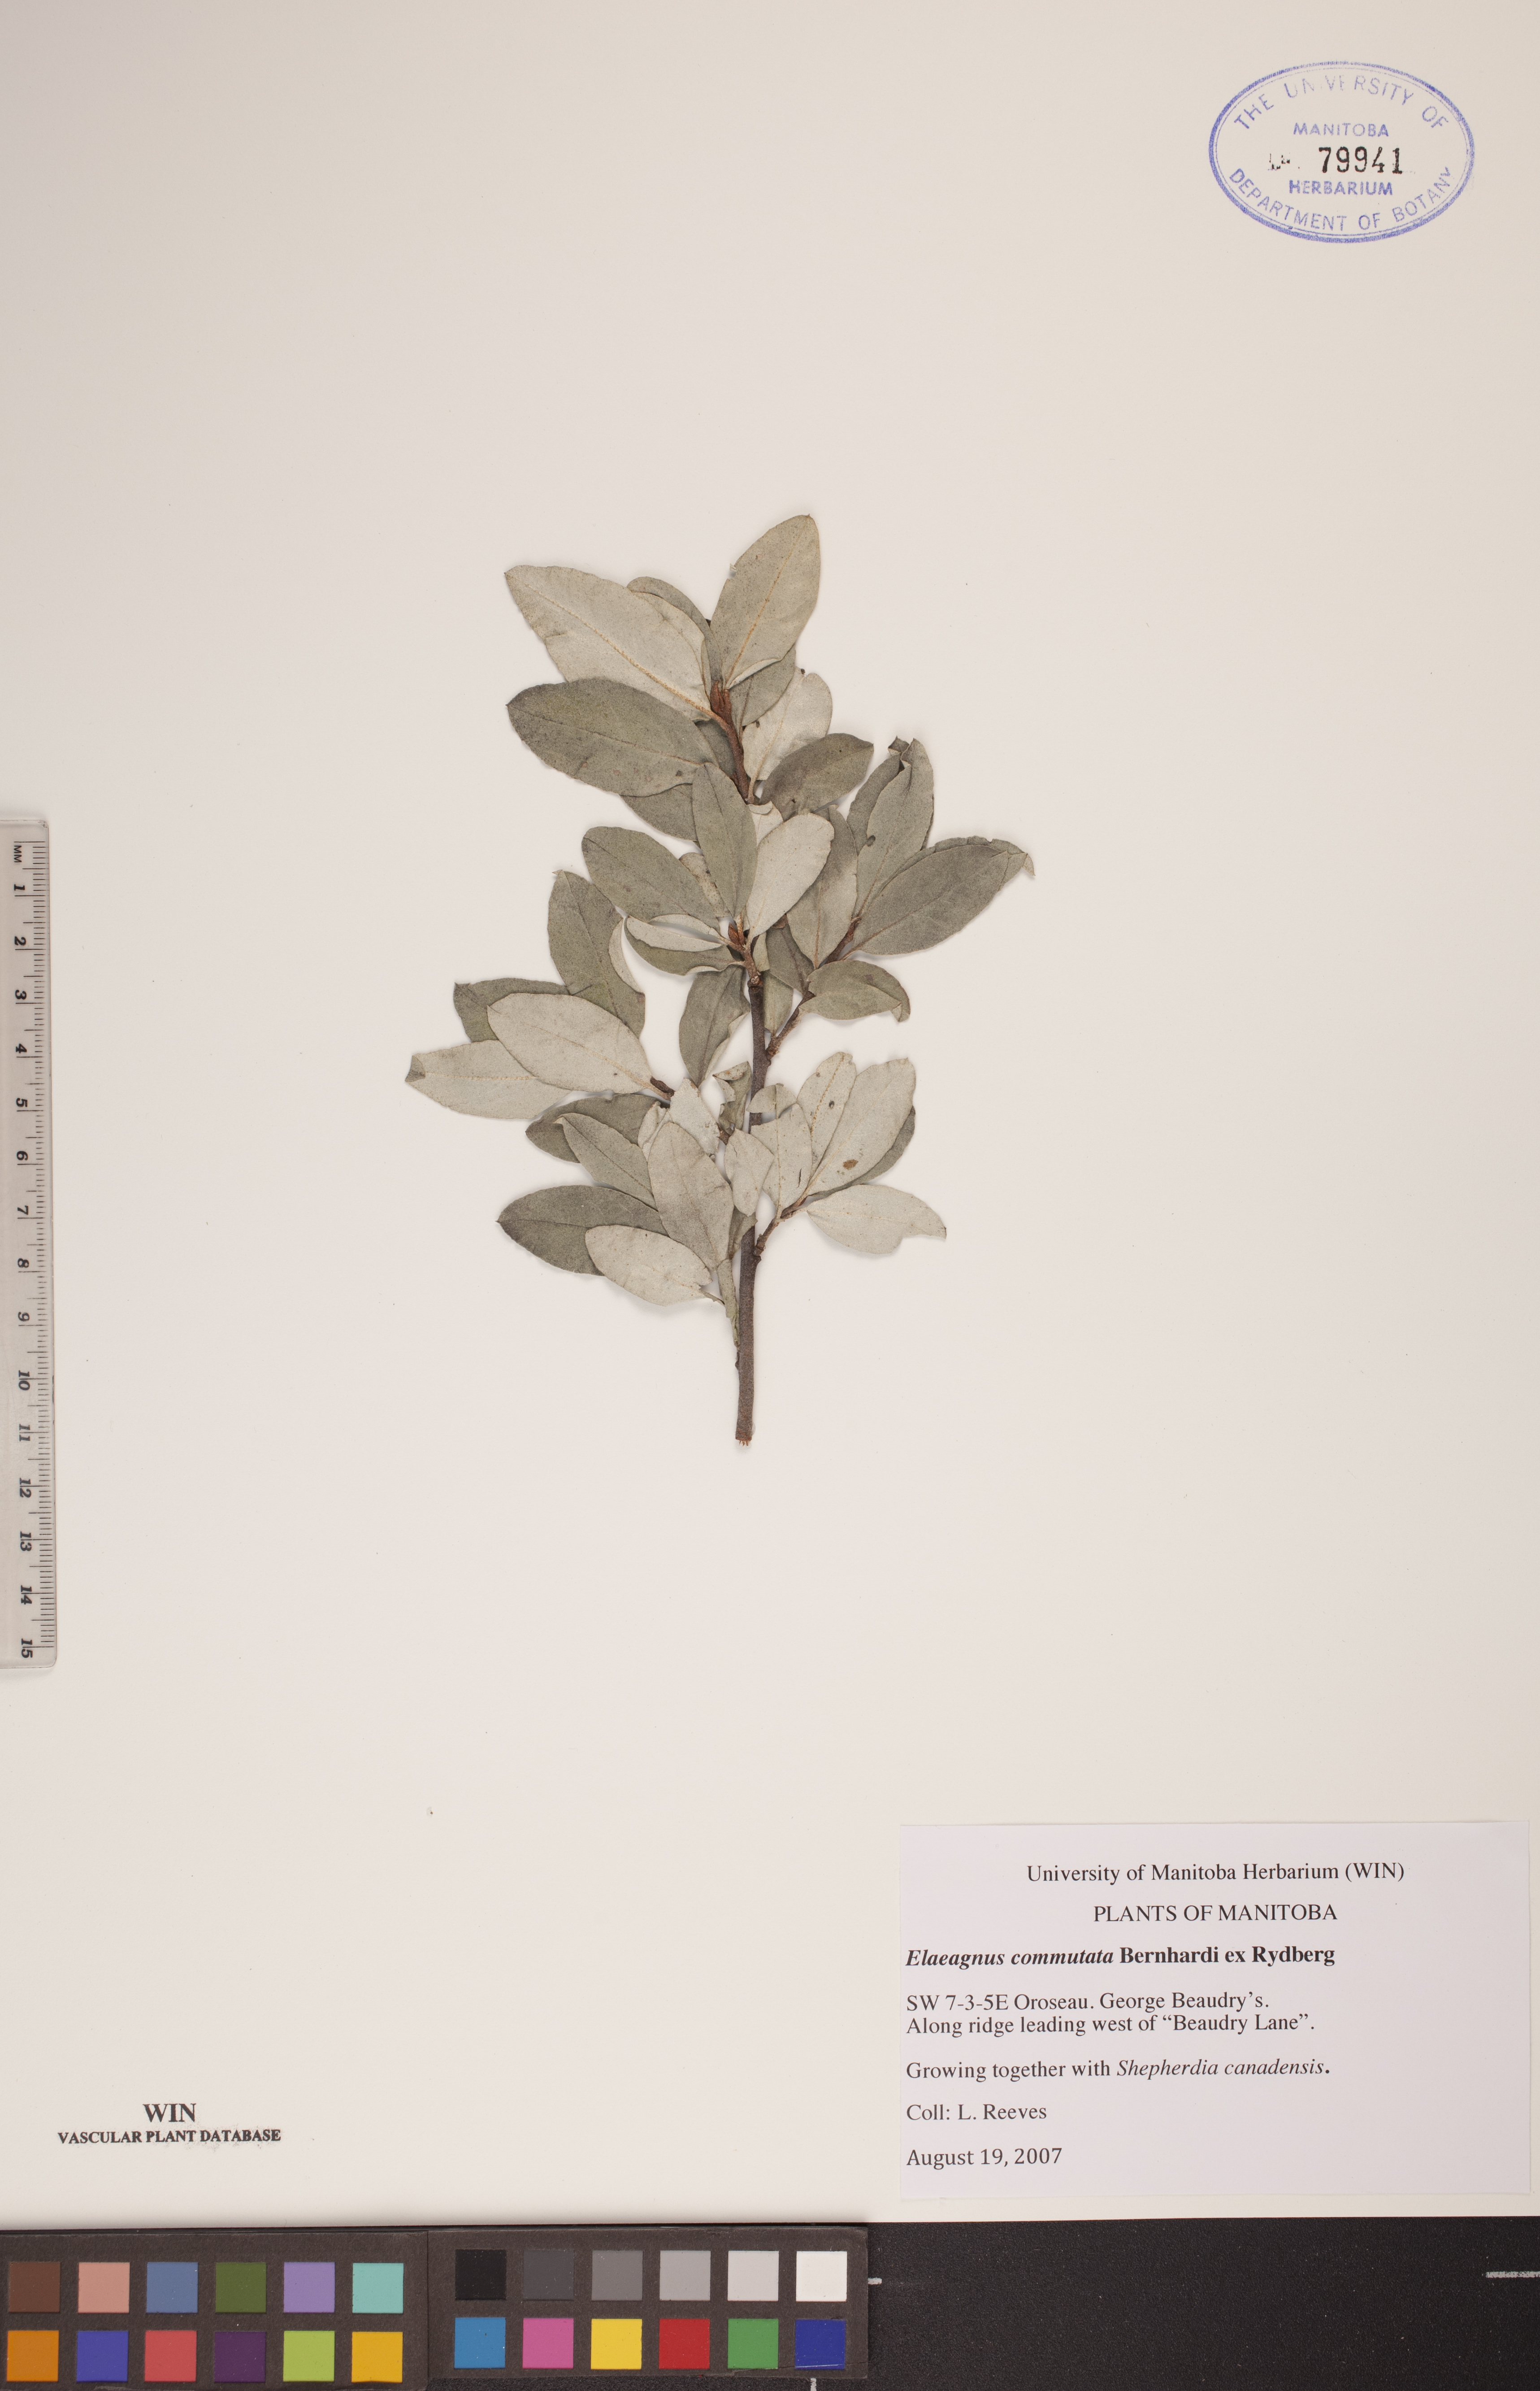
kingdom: Plantae
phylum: Tracheophyta
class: Magnoliopsida
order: Rosales
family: Elaeagnaceae
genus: Elaeagnus
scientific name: Elaeagnus commutata
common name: Silverberry
